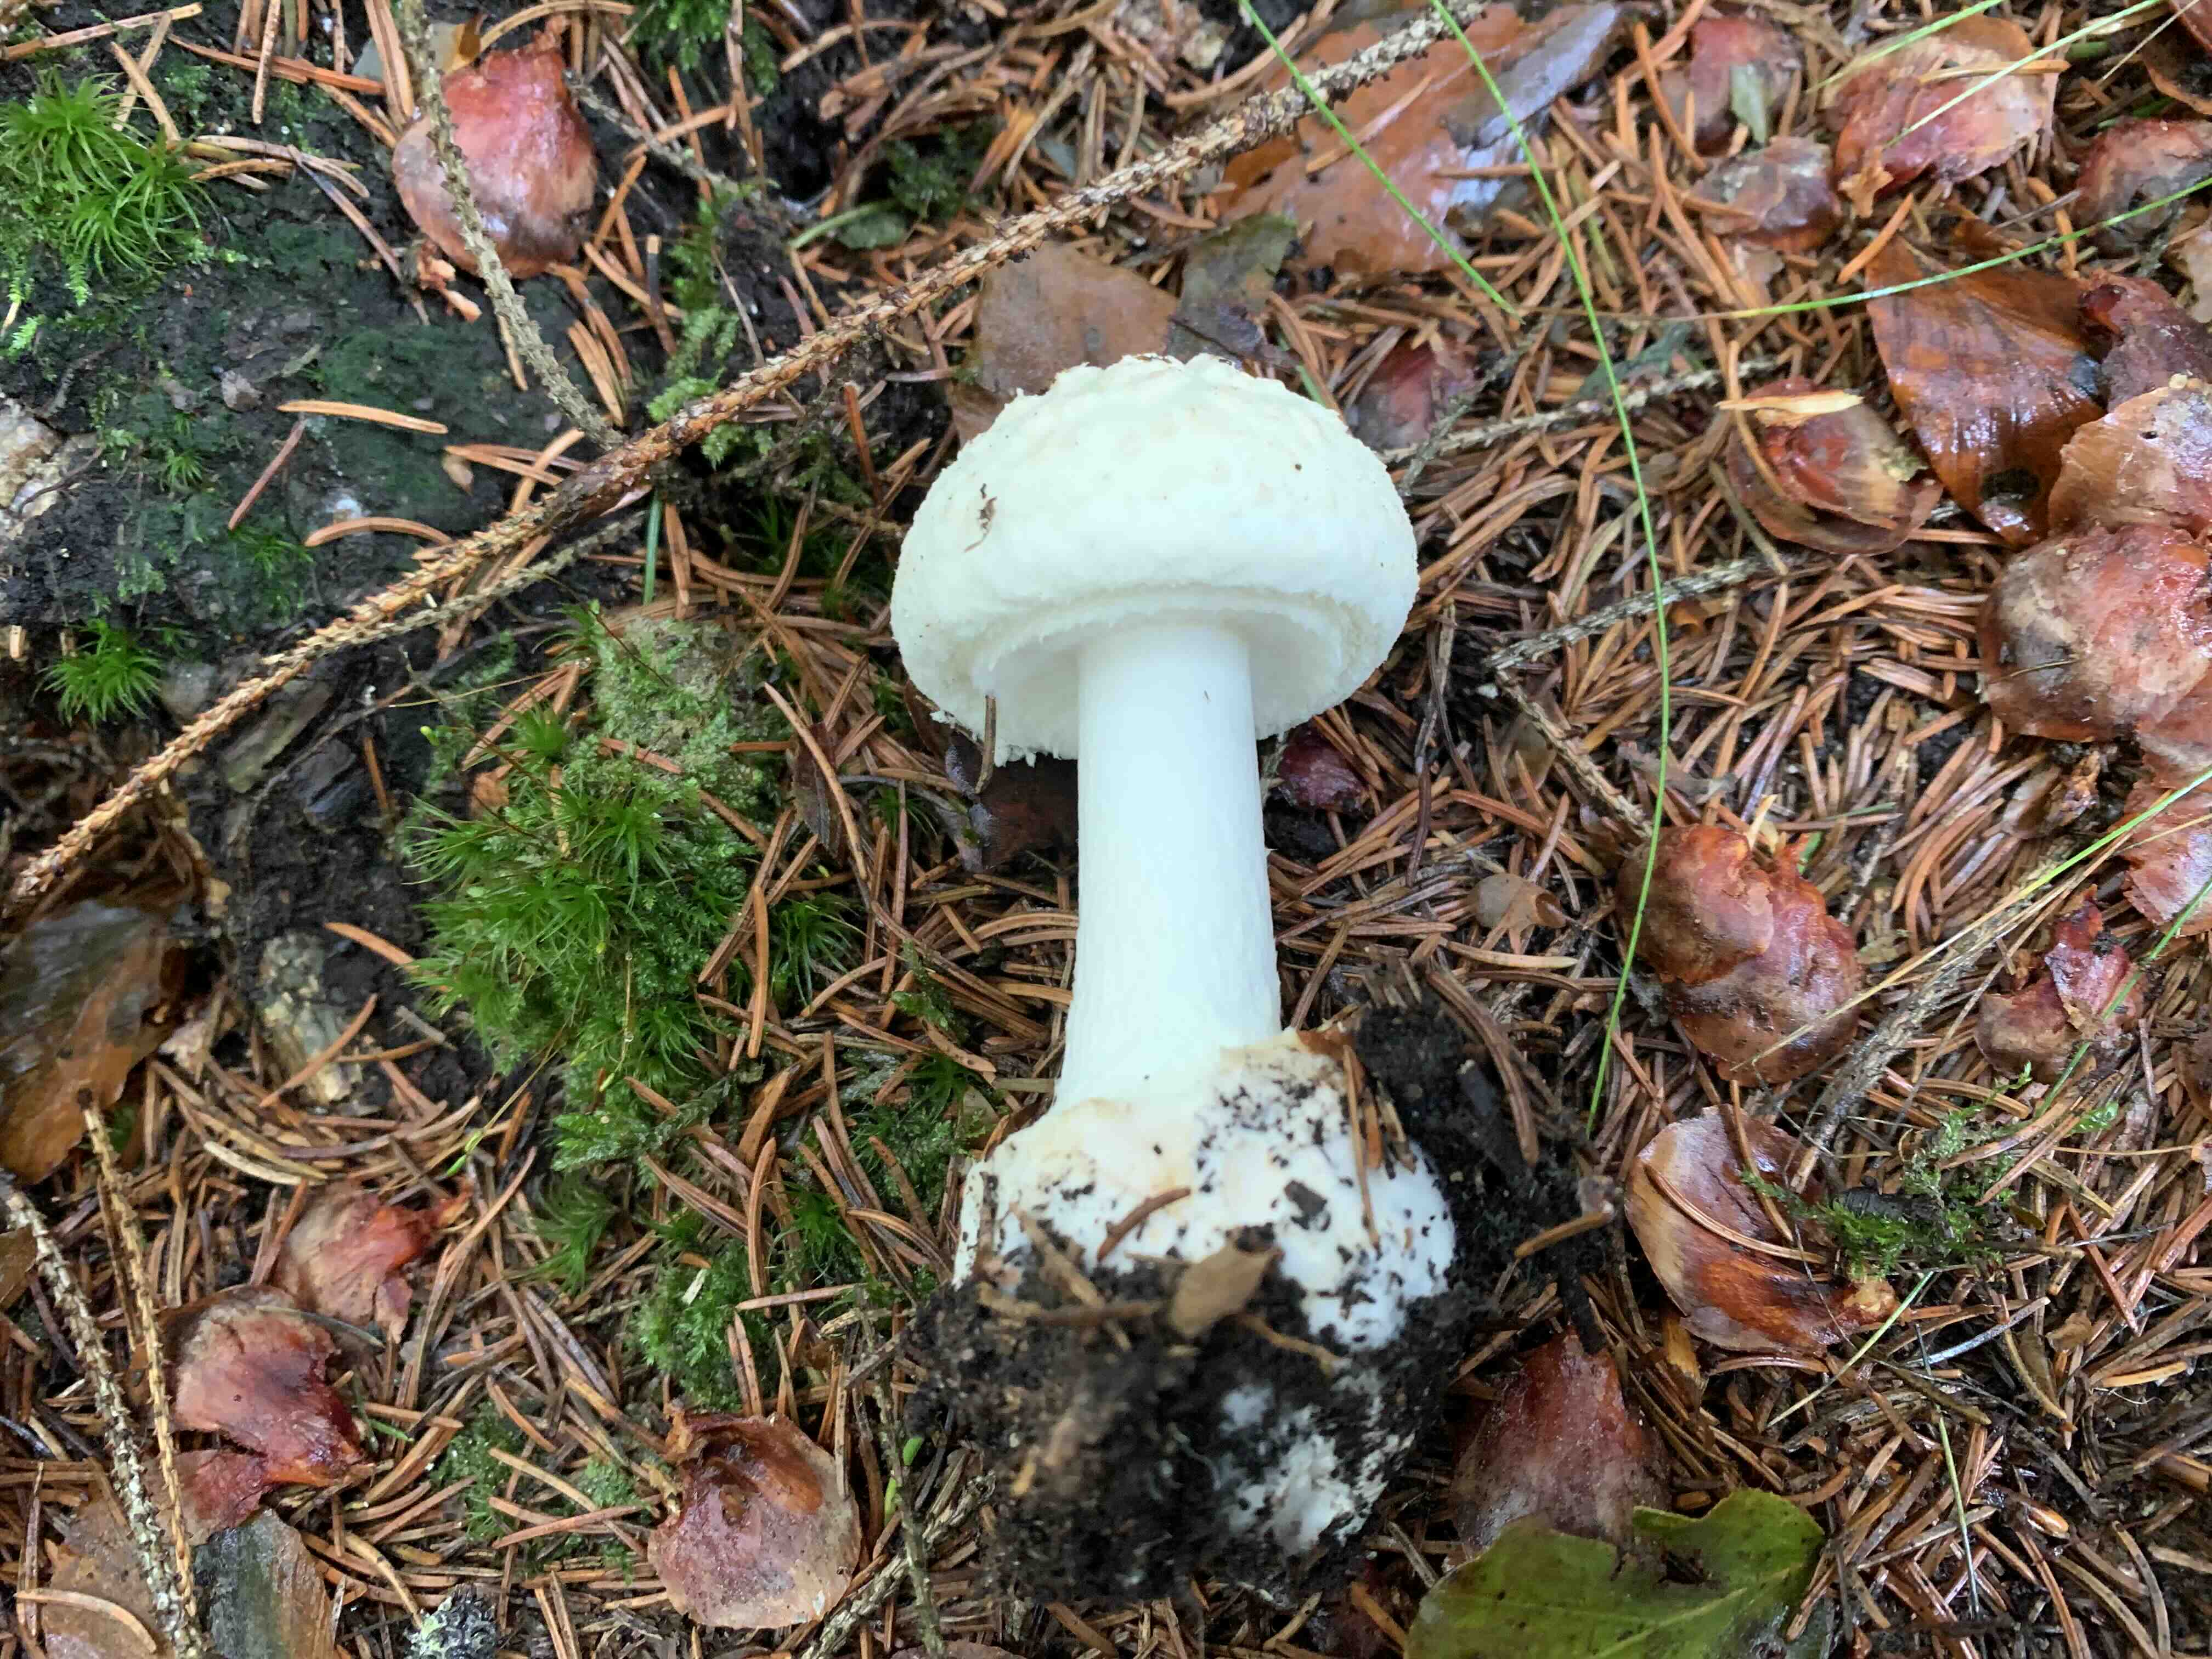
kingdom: Fungi
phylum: Basidiomycota
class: Agaricomycetes
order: Agaricales
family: Amanitaceae
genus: Amanita
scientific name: Amanita citrina
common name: kugleknoldet fluesvamp
